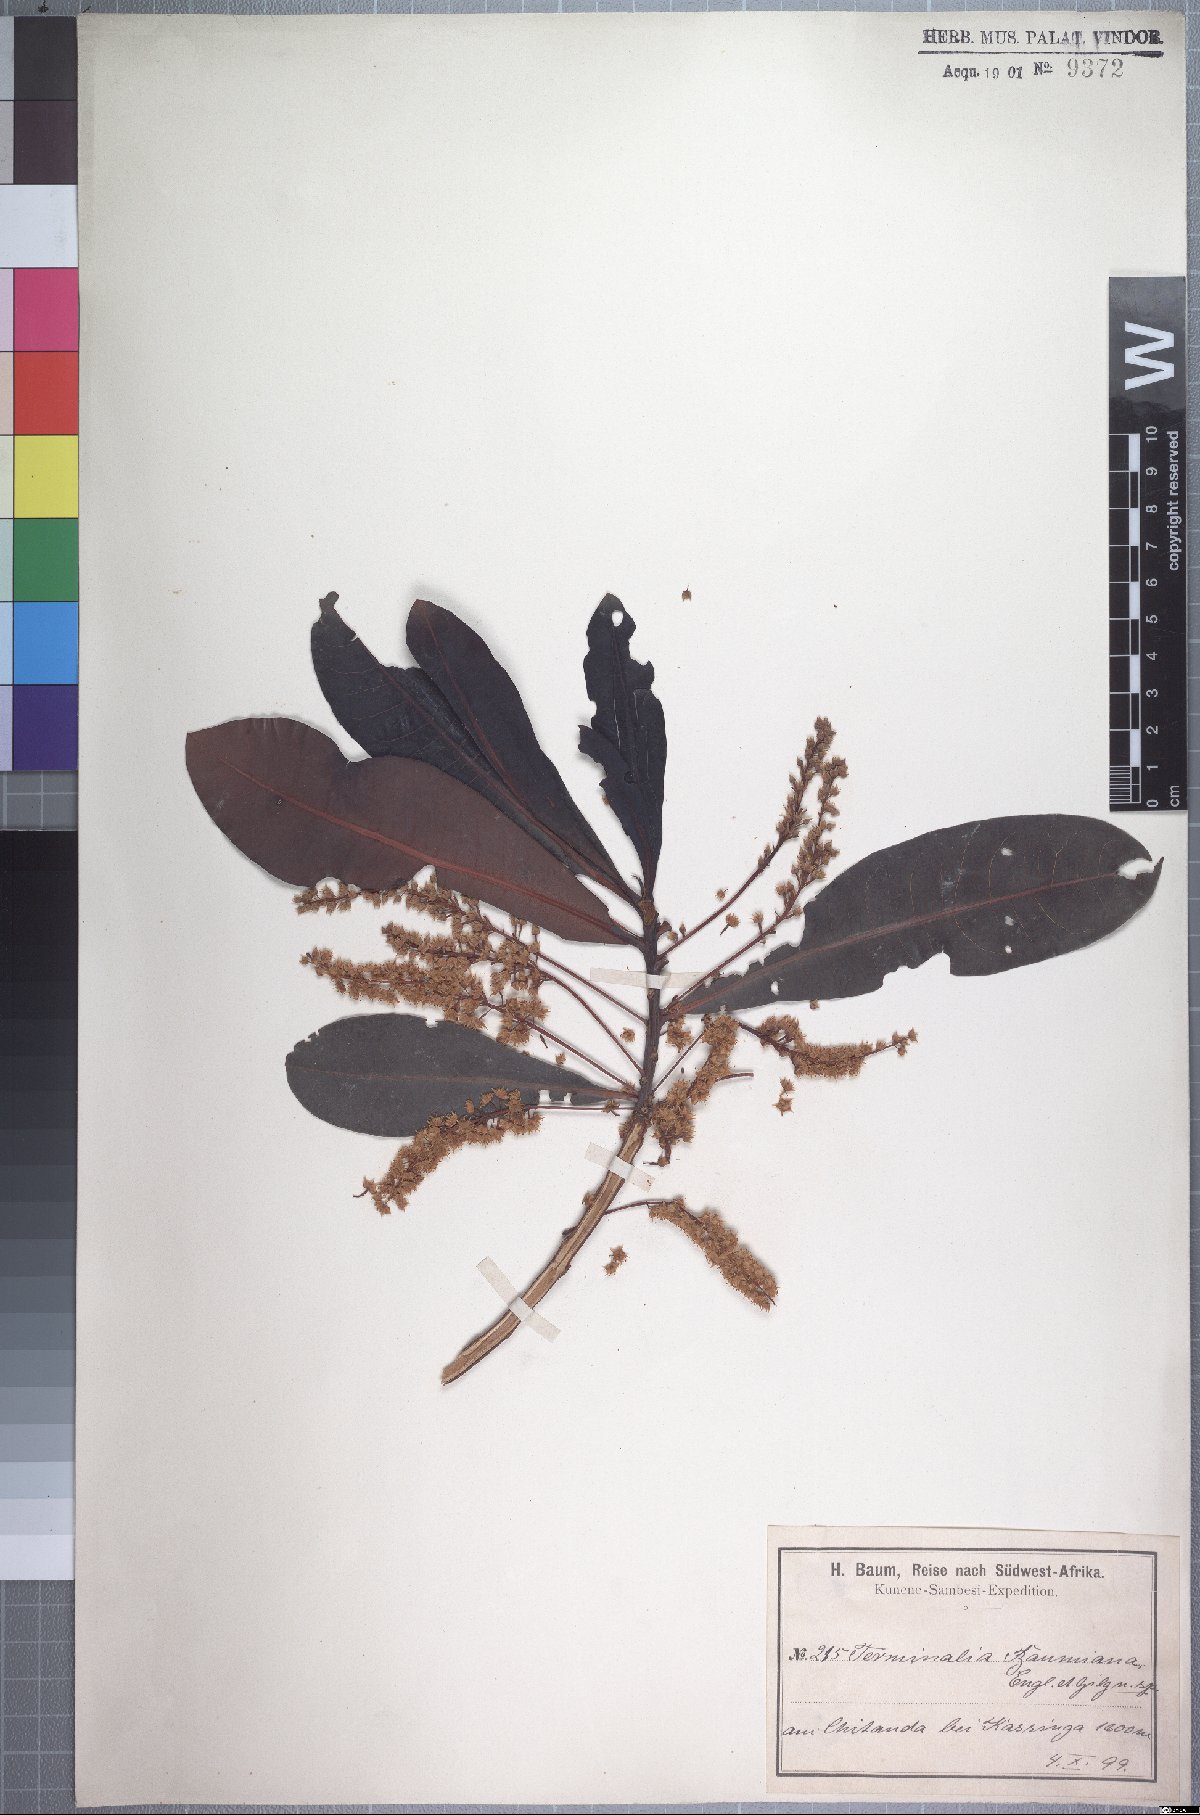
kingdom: Plantae
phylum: Tracheophyta
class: Magnoliopsida
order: Myrtales
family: Combretaceae
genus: Terminalia
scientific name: Terminalia brachystemma
